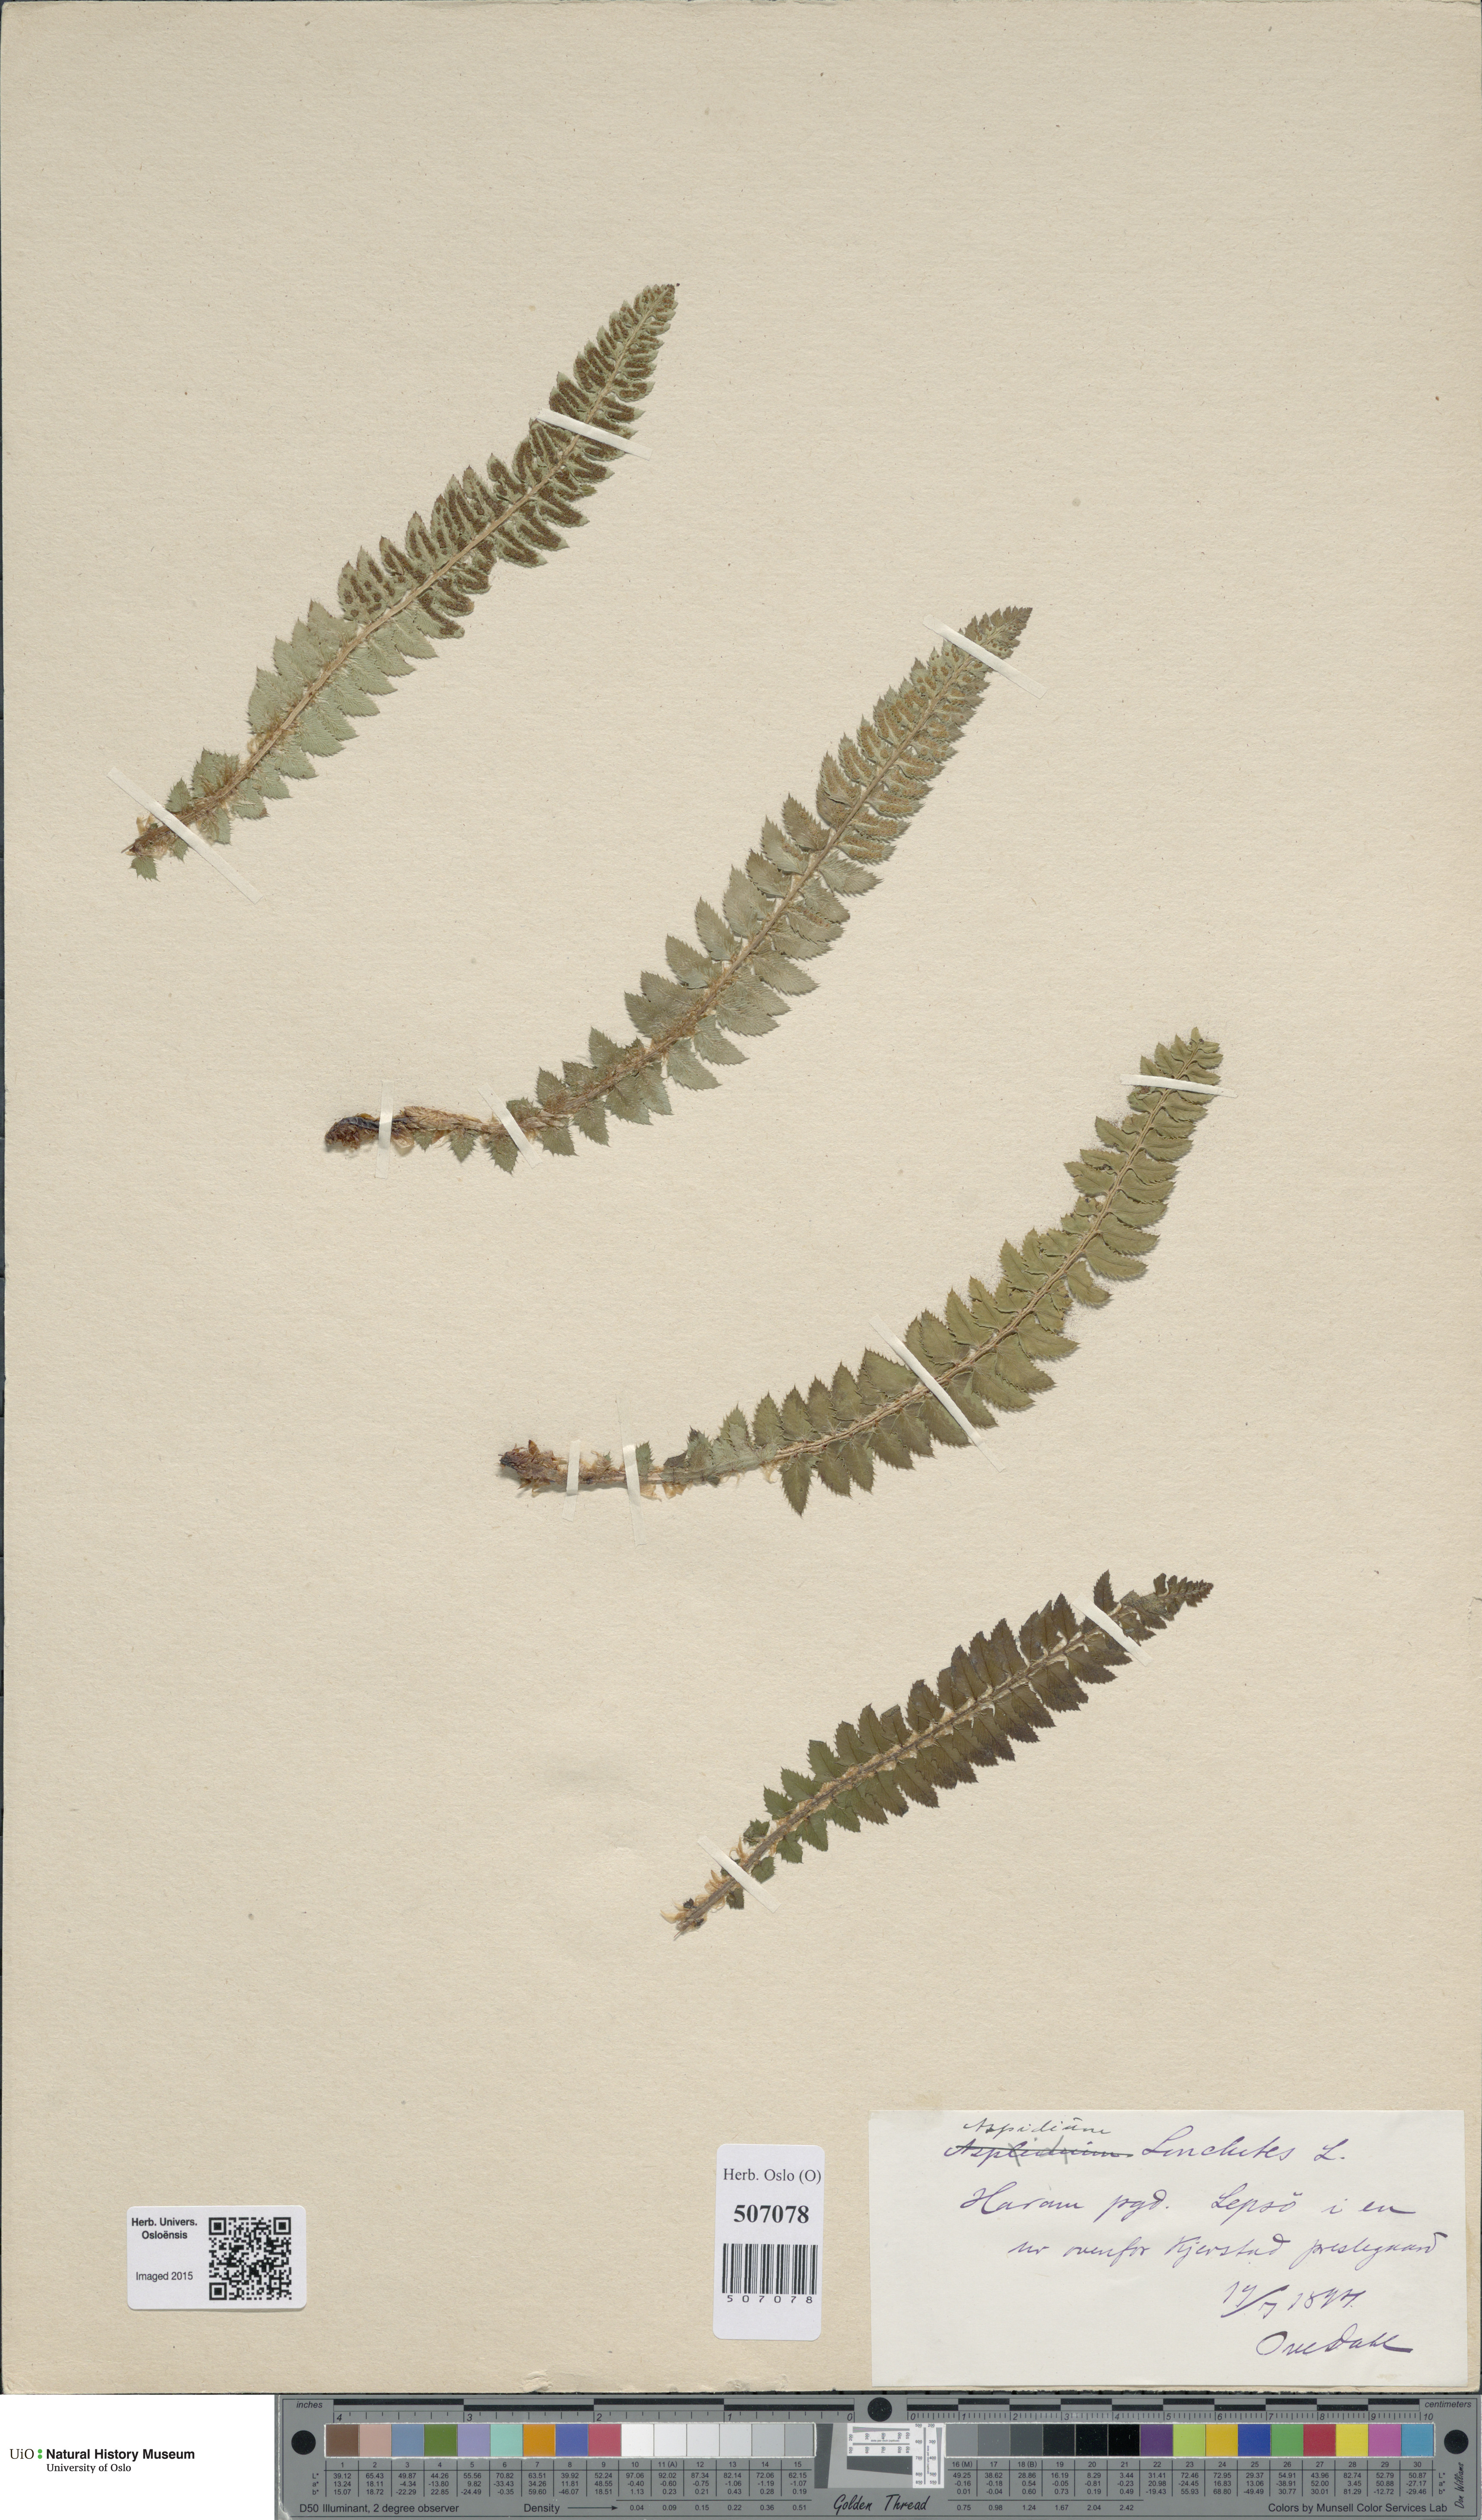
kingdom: Plantae
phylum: Tracheophyta
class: Polypodiopsida
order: Polypodiales
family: Dryopteridaceae
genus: Polystichum
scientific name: Polystichum lonchitis
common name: Holly fern
